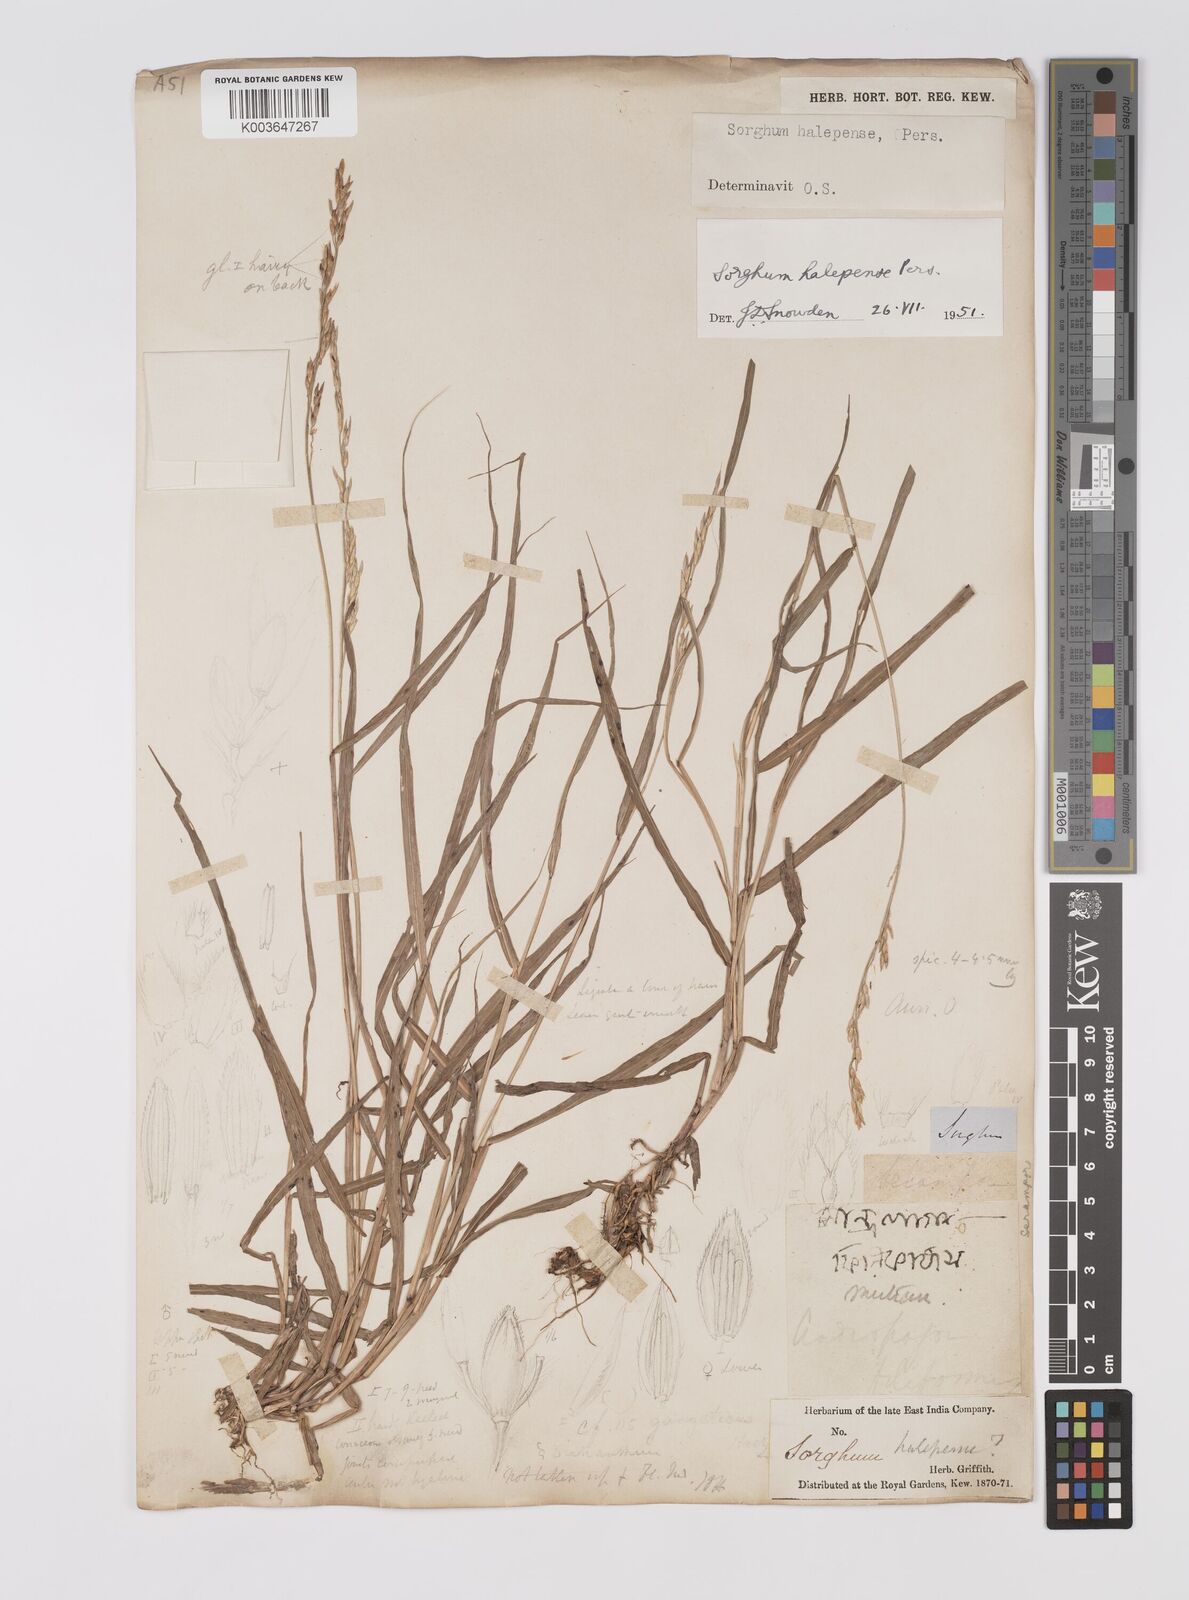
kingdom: Plantae
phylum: Tracheophyta
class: Liliopsida
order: Poales
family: Poaceae
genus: Sorghum
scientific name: Sorghum halepense
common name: Johnson-grass
